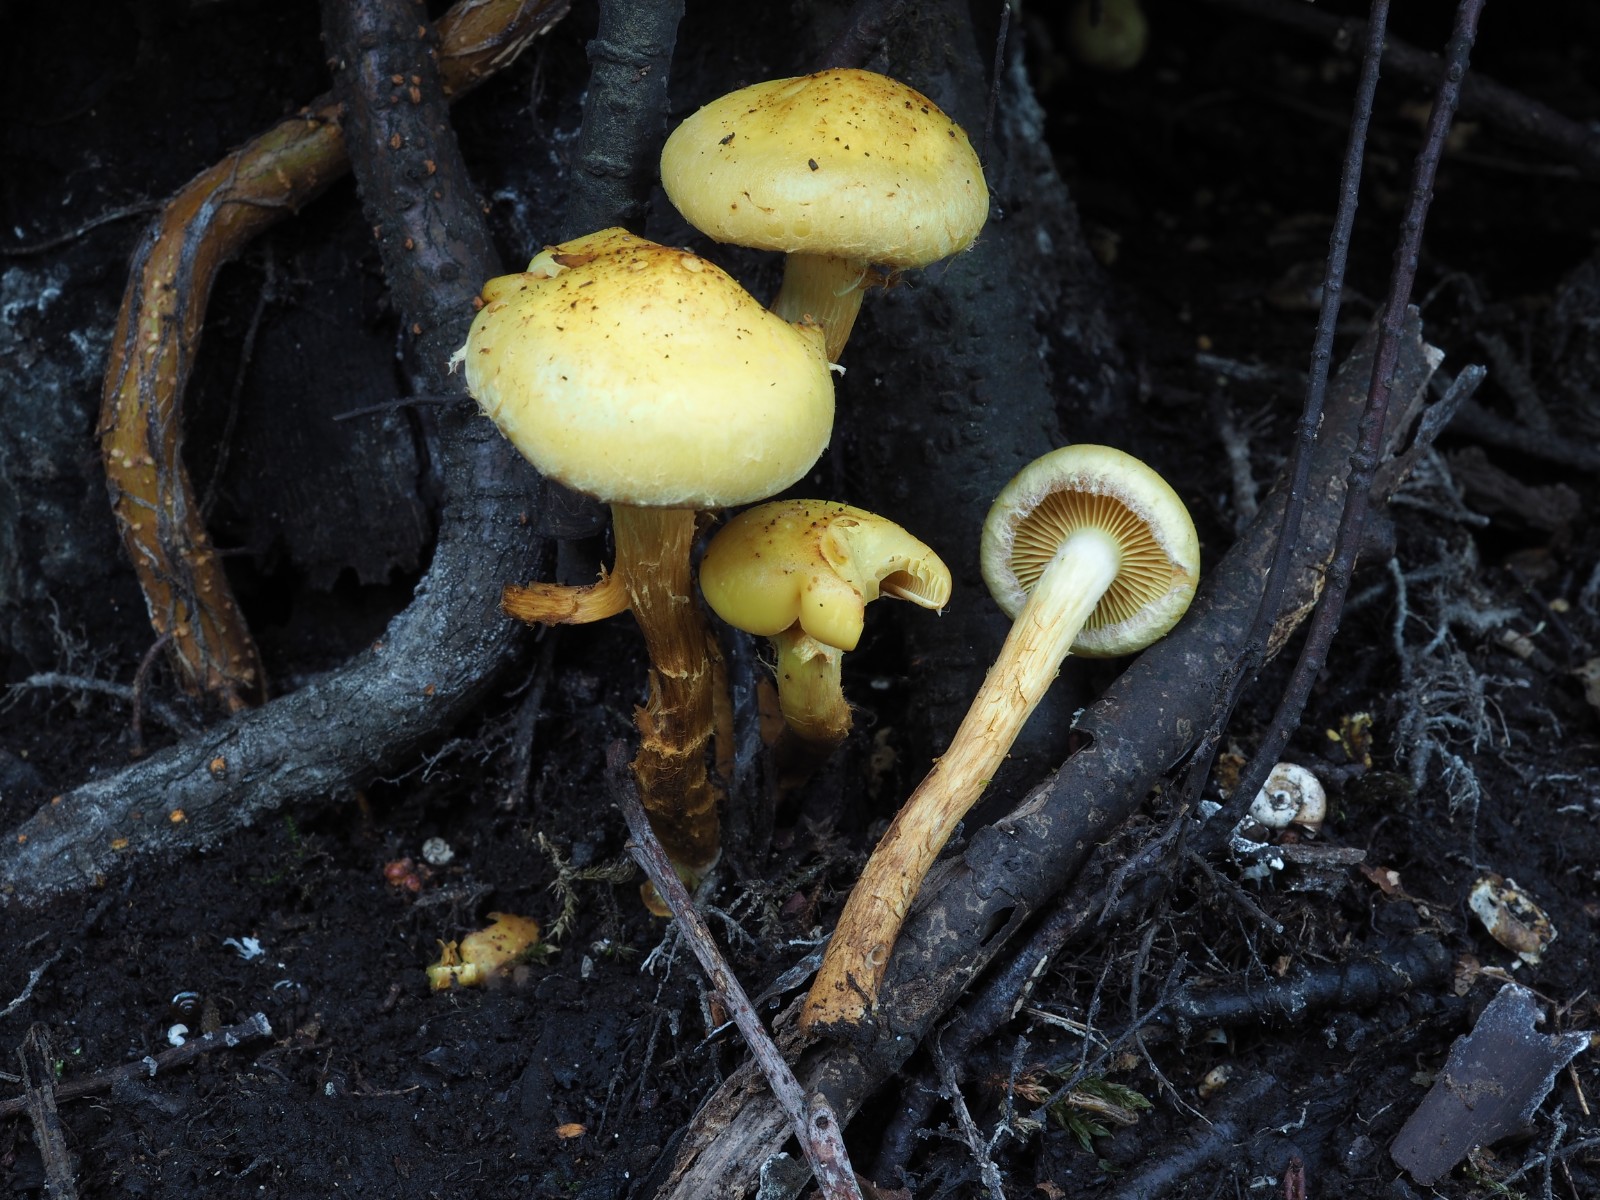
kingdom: Fungi
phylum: Basidiomycota
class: Agaricomycetes
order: Agaricales
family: Hymenogastraceae
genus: Flammula
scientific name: Flammula alnicola
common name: elle-skælhat
